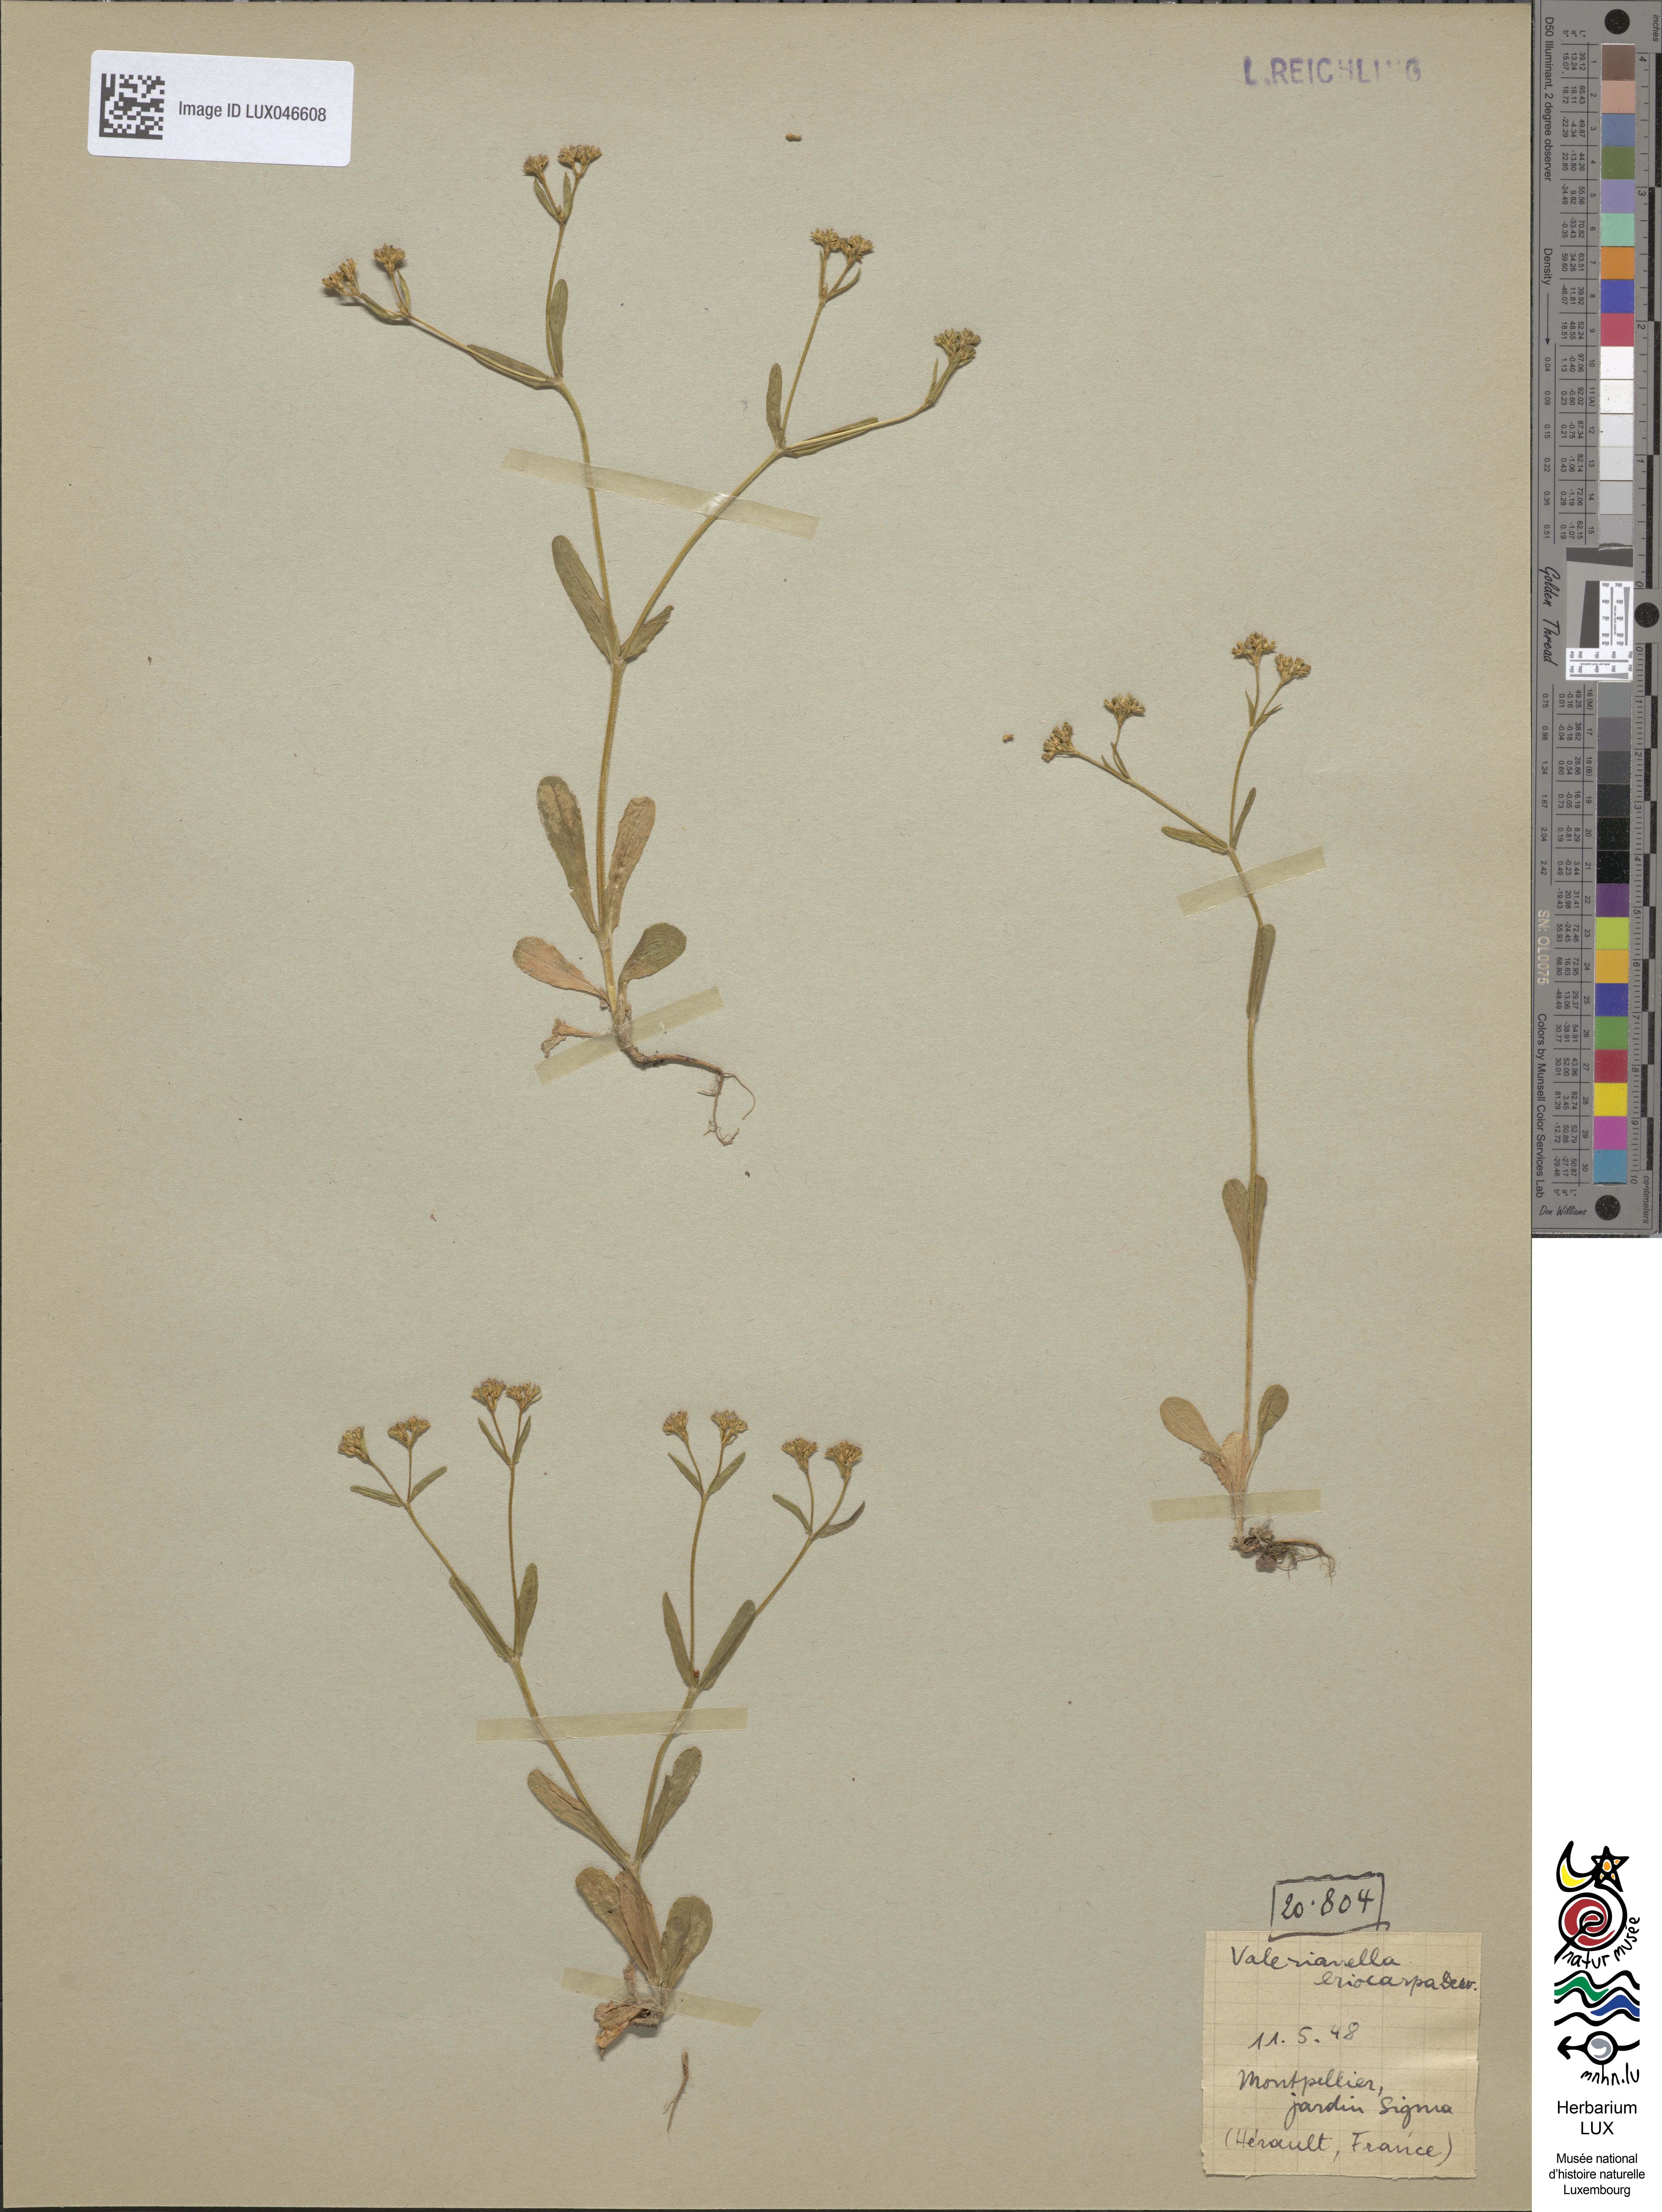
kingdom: Plantae
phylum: Tracheophyta
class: Magnoliopsida
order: Dipsacales
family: Caprifoliaceae
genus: Valerianella
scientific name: Valerianella eriocarpa
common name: Hairy-fruited cornsalad
